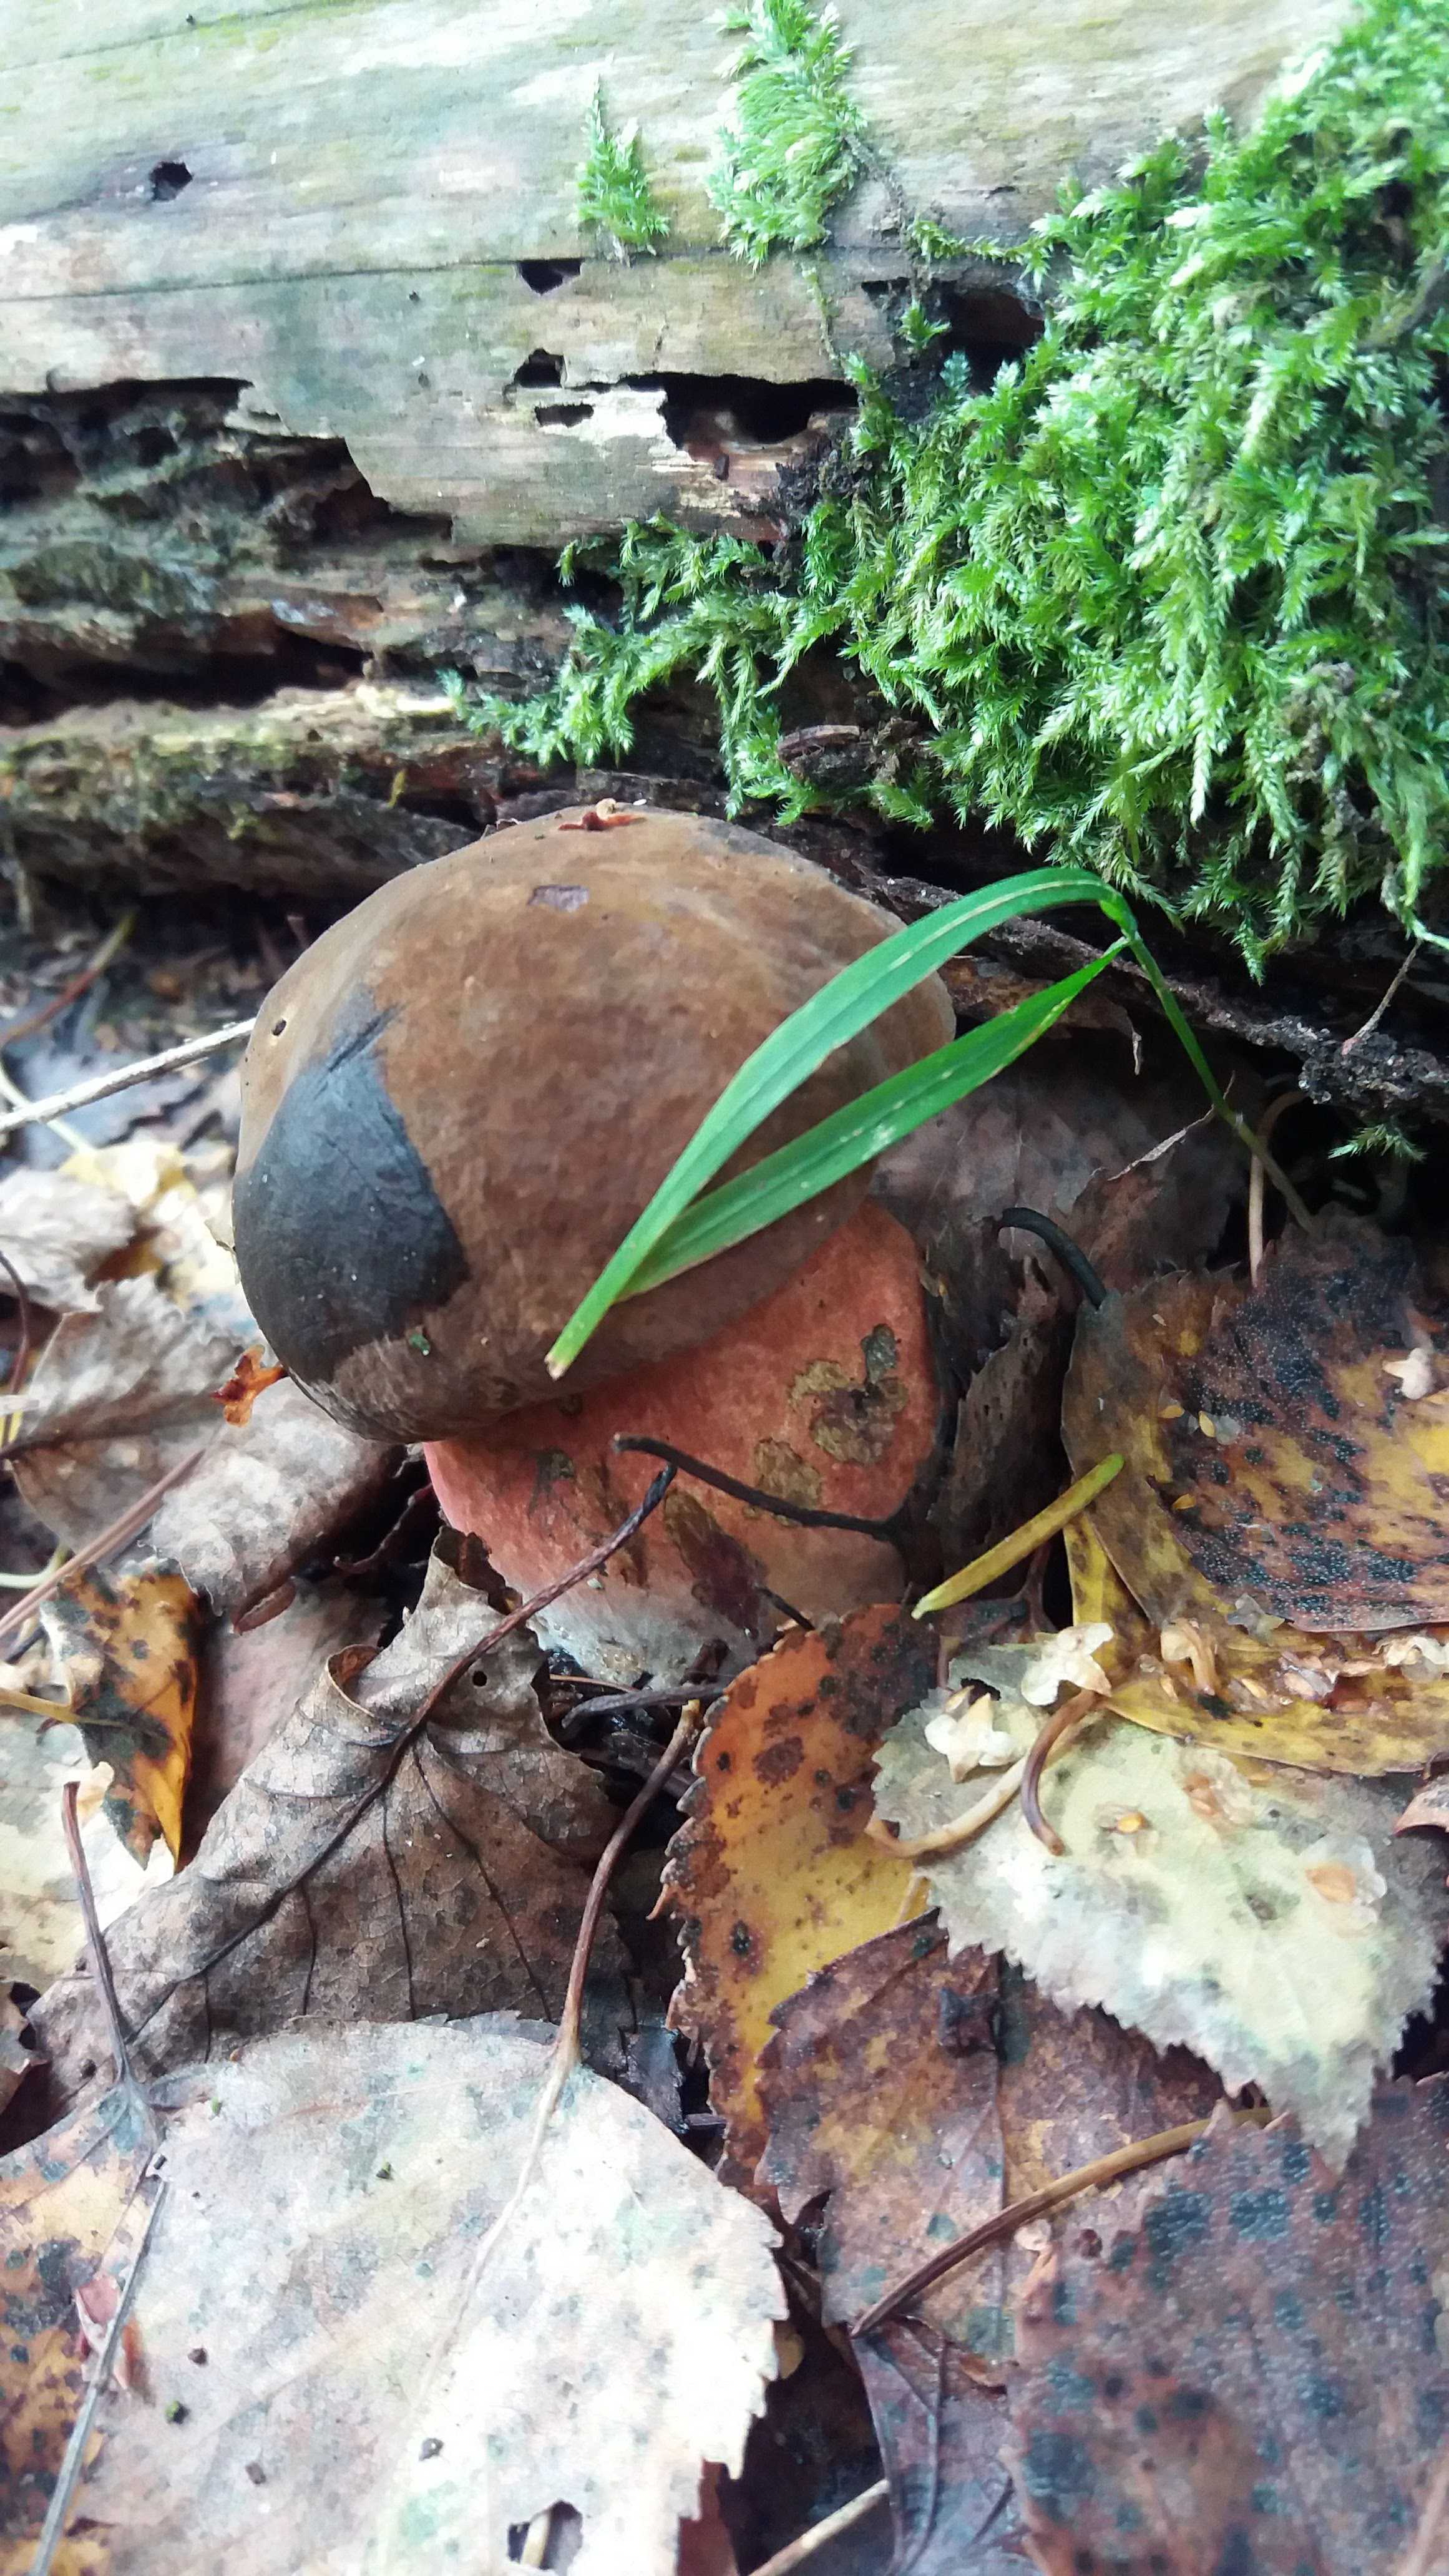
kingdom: Fungi
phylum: Basidiomycota
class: Agaricomycetes
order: Boletales
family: Boletaceae
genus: Neoboletus
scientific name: Neoboletus erythropus
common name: punktstokket indigorørhat
